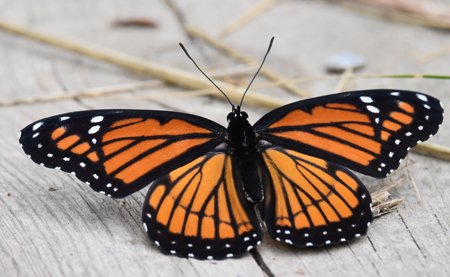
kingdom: Animalia
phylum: Arthropoda
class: Insecta
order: Lepidoptera
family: Nymphalidae
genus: Limenitis
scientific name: Limenitis archippus
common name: Viceroy
